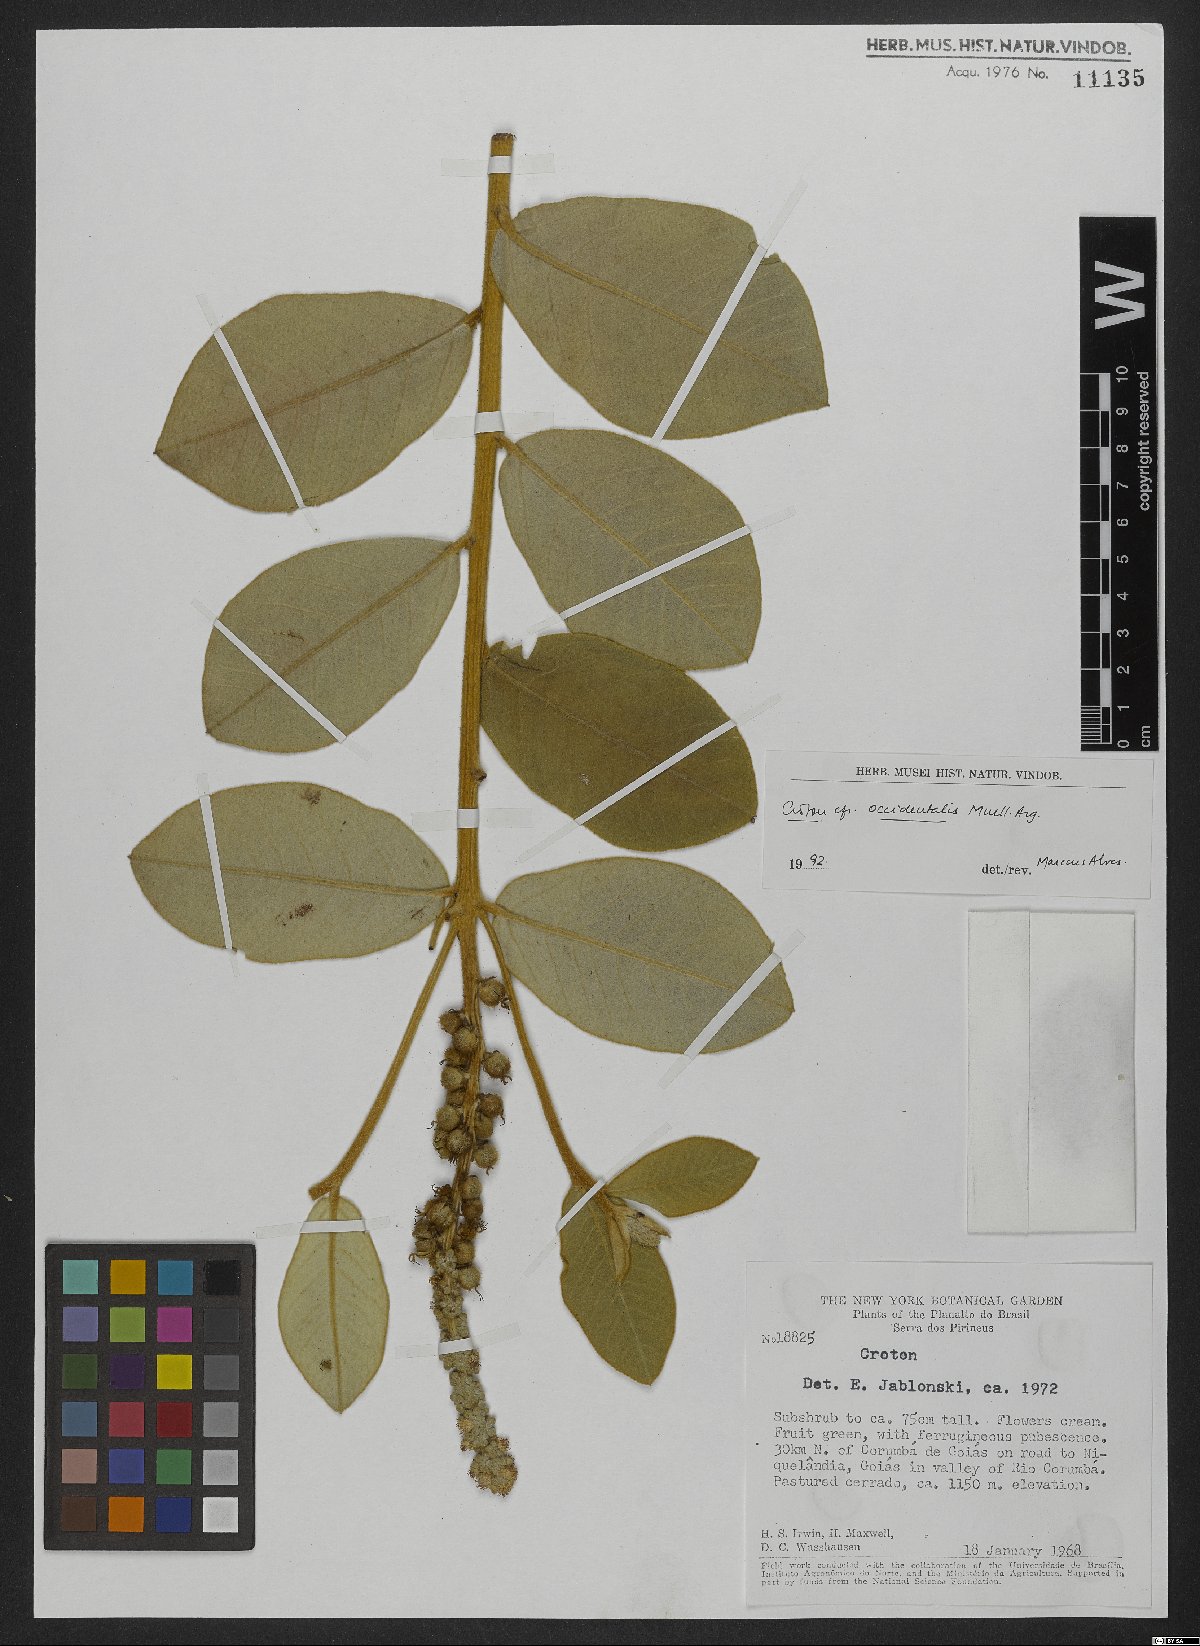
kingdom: Plantae
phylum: Tracheophyta
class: Magnoliopsida
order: Malpighiales
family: Euphorbiaceae
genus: Croton
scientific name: Croton grandivelum
